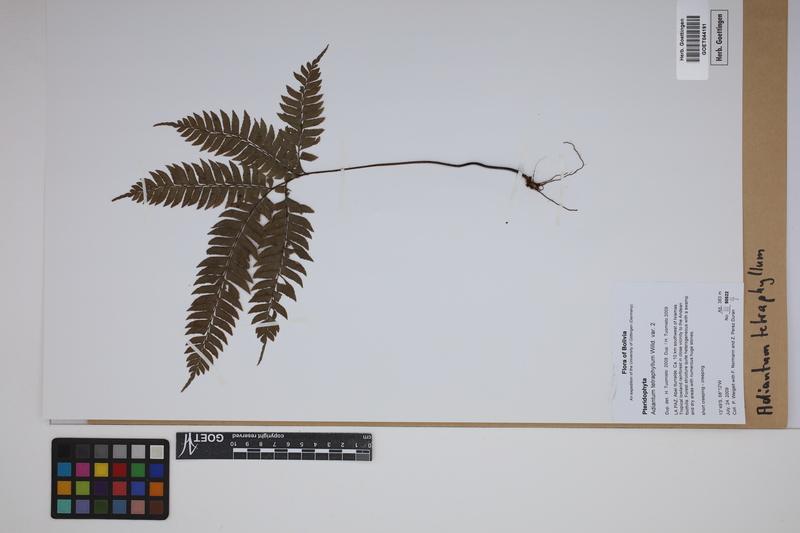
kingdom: Plantae
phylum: Tracheophyta
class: Polypodiopsida
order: Polypodiales
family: Pteridaceae
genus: Adiantum
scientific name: Adiantum tetraphyllum
